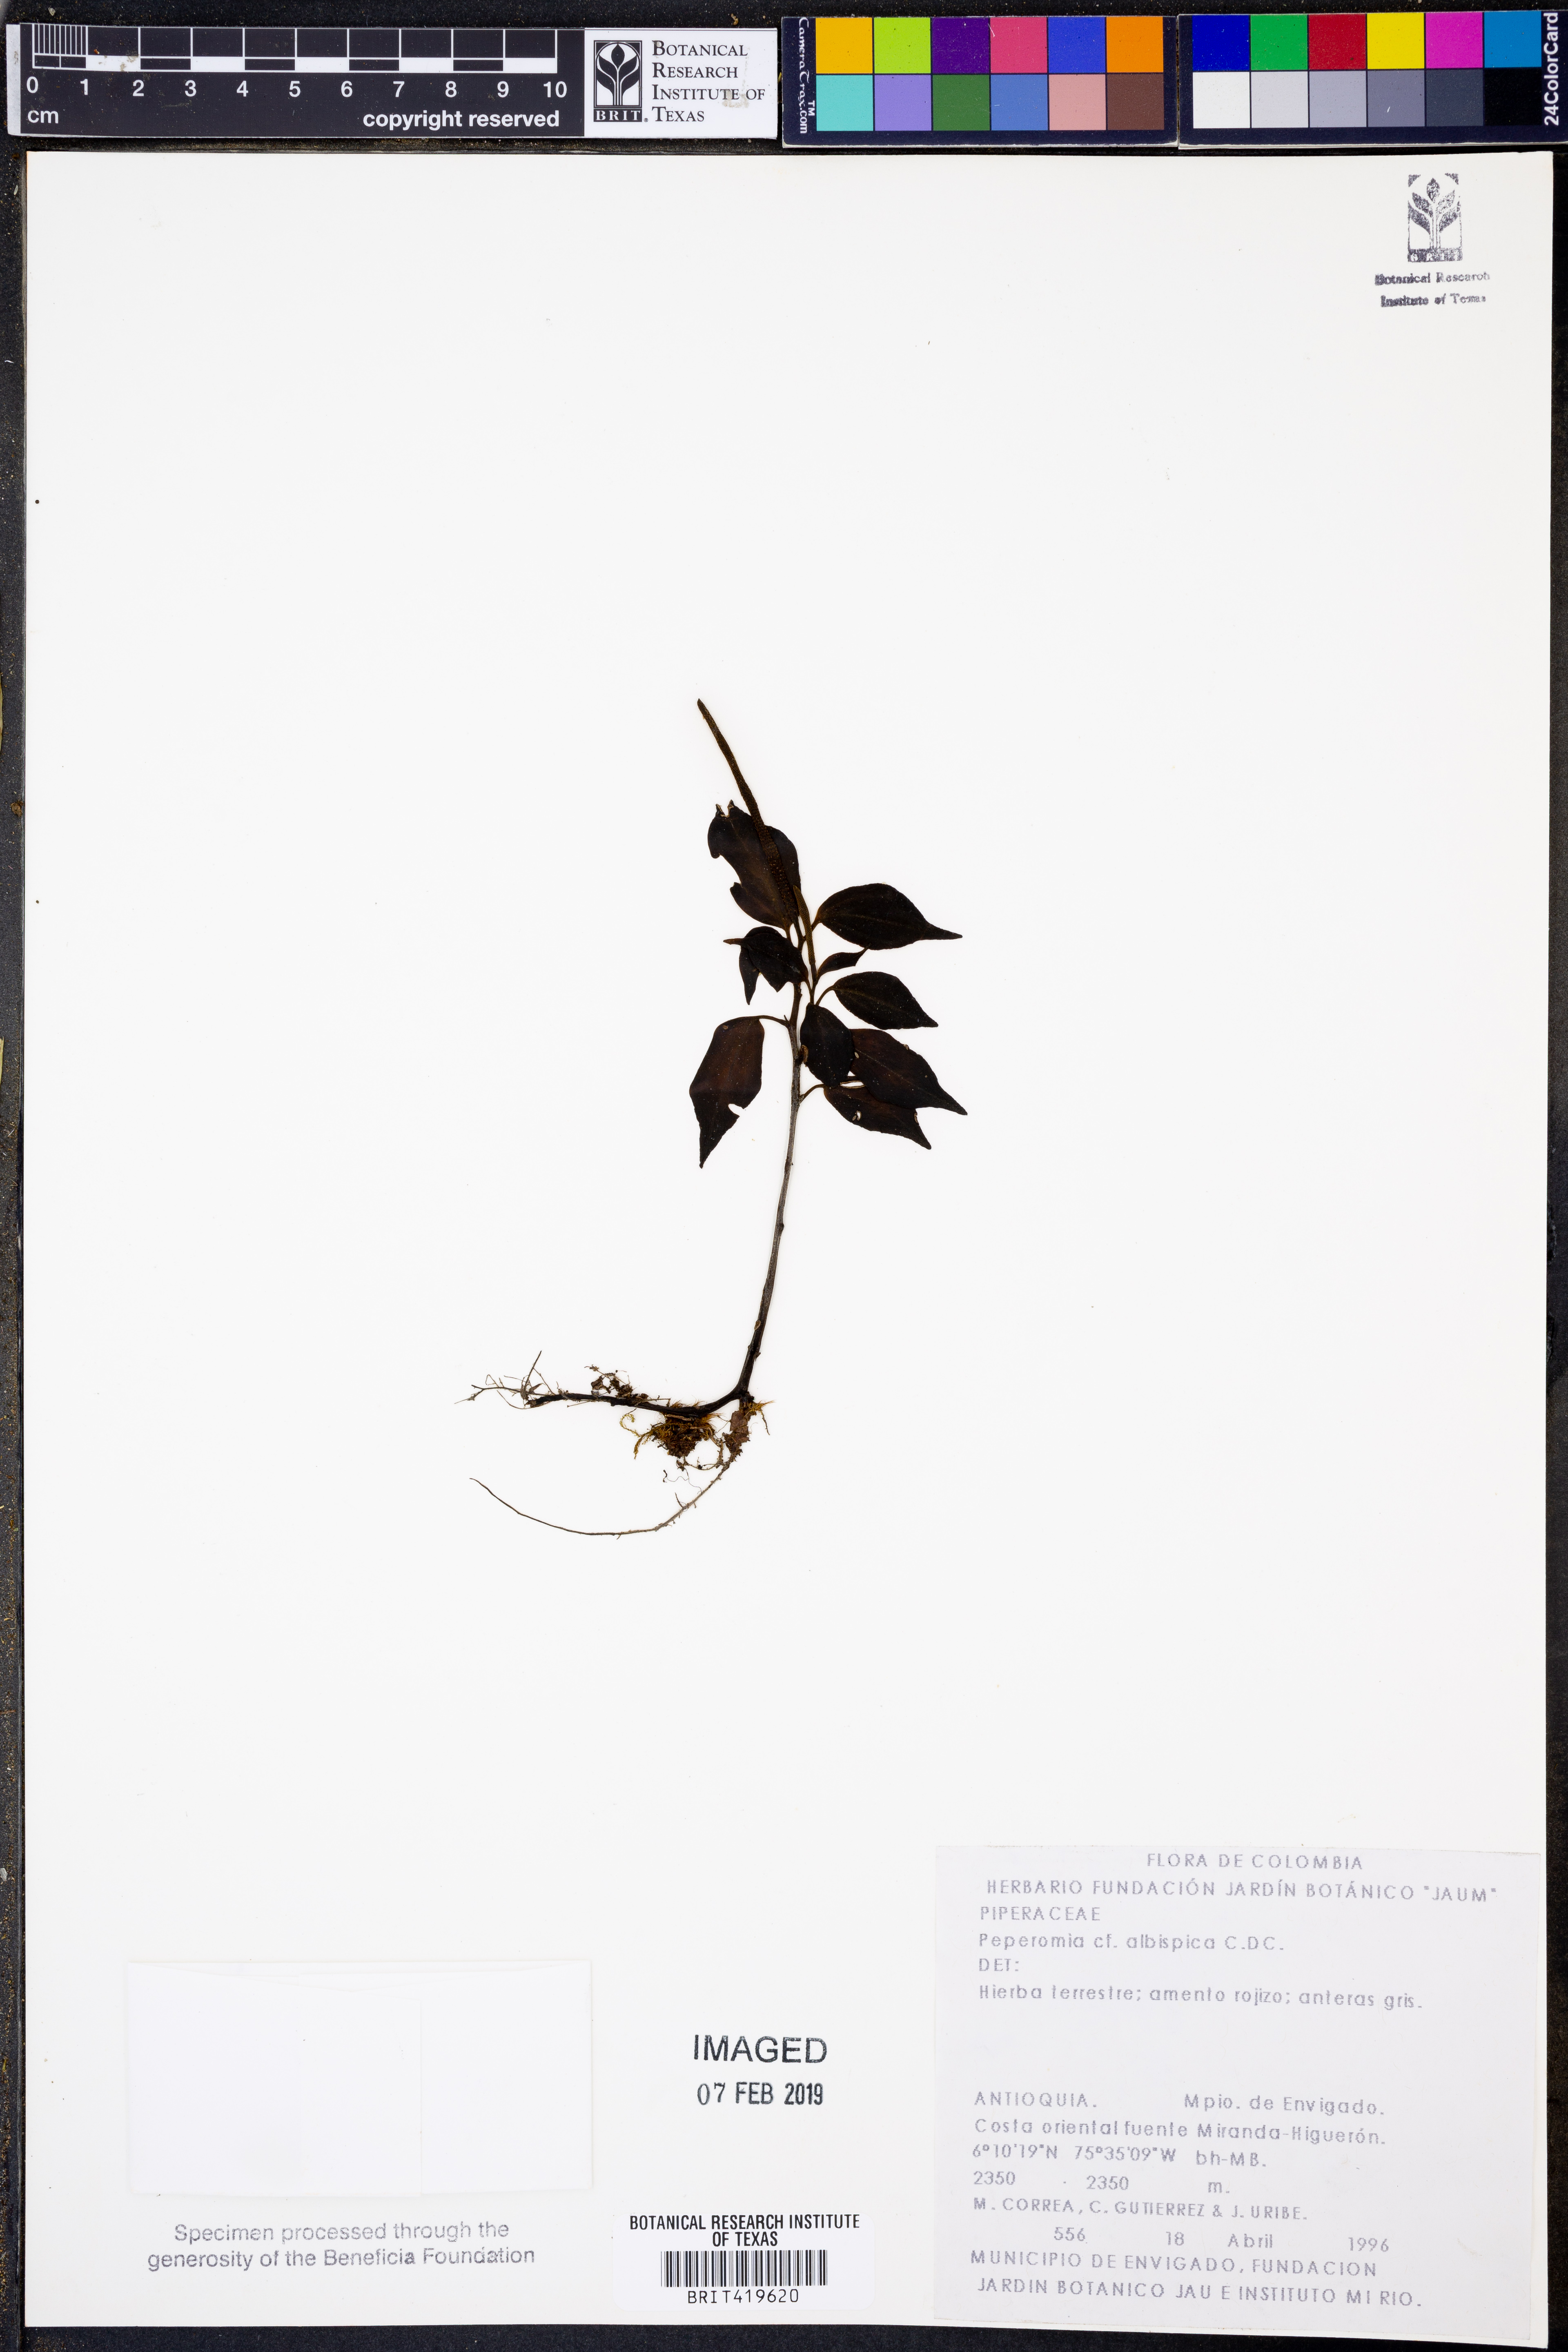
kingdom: Plantae
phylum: Tracheophyta
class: Magnoliopsida
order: Piperales
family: Piperaceae
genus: Peperomia
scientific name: Peperomia chimboana
